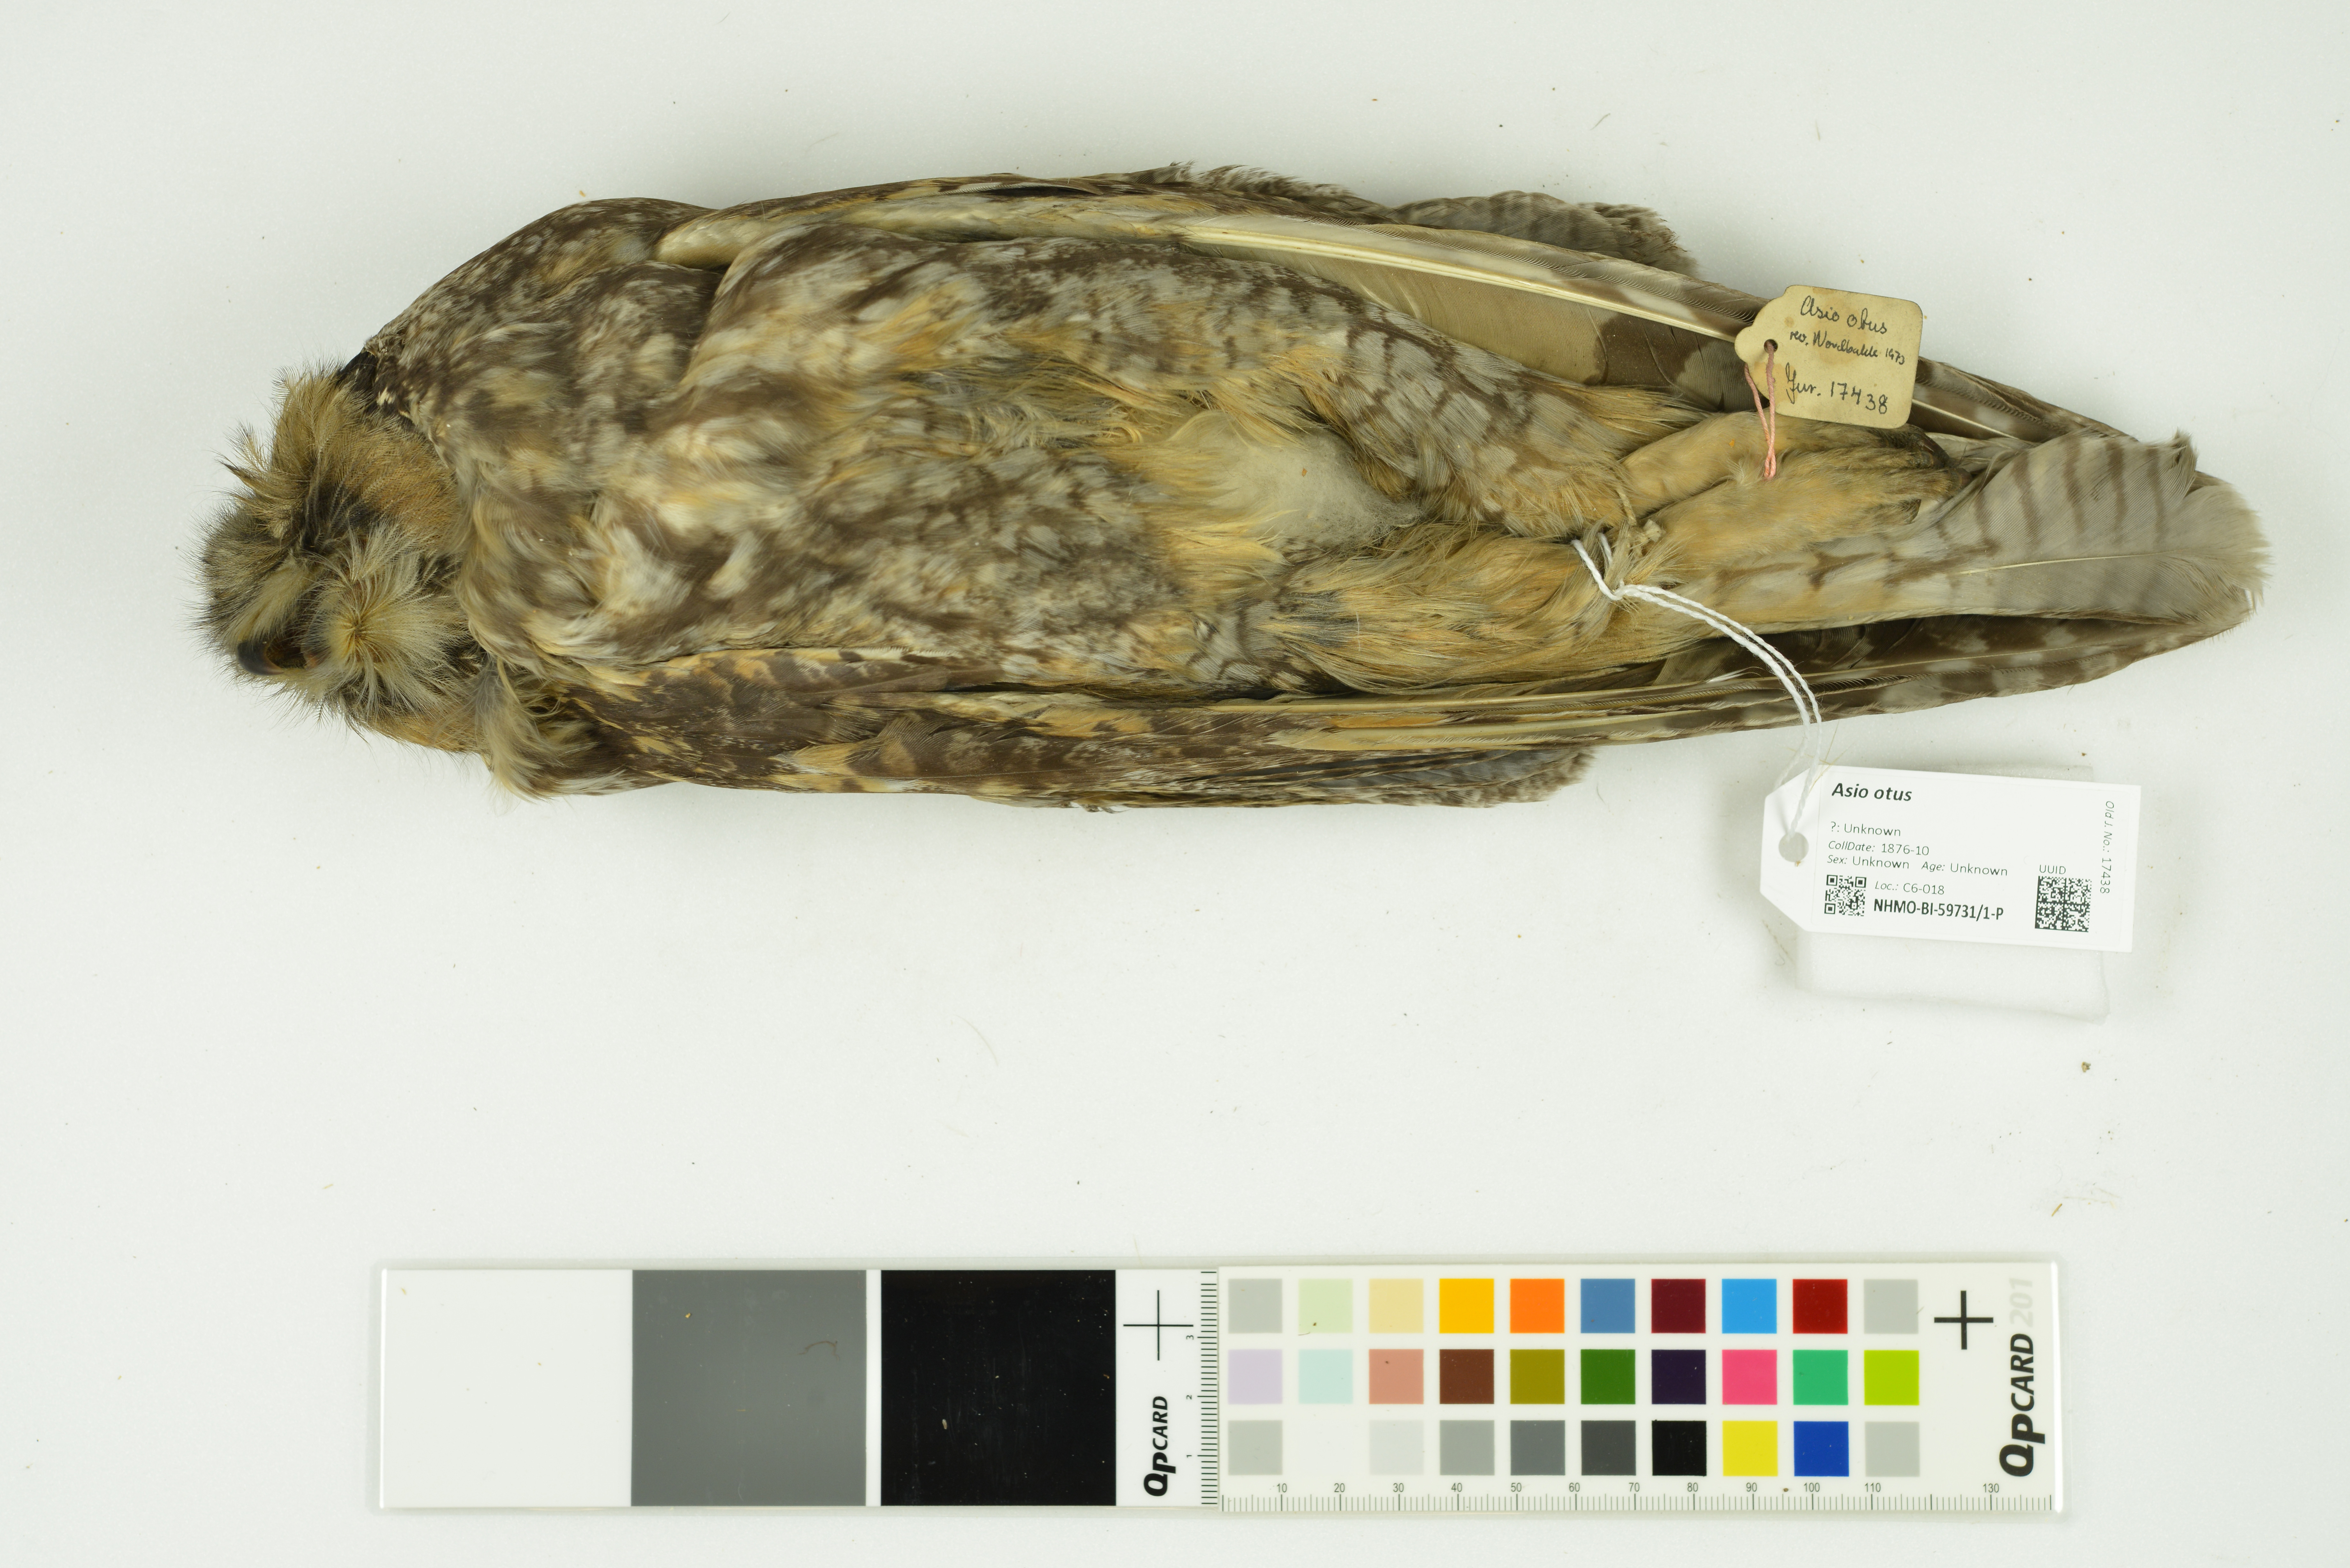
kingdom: Animalia
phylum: Chordata
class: Aves
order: Strigiformes
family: Strigidae
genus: Asio
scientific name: Asio otus
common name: Long-eared owl
